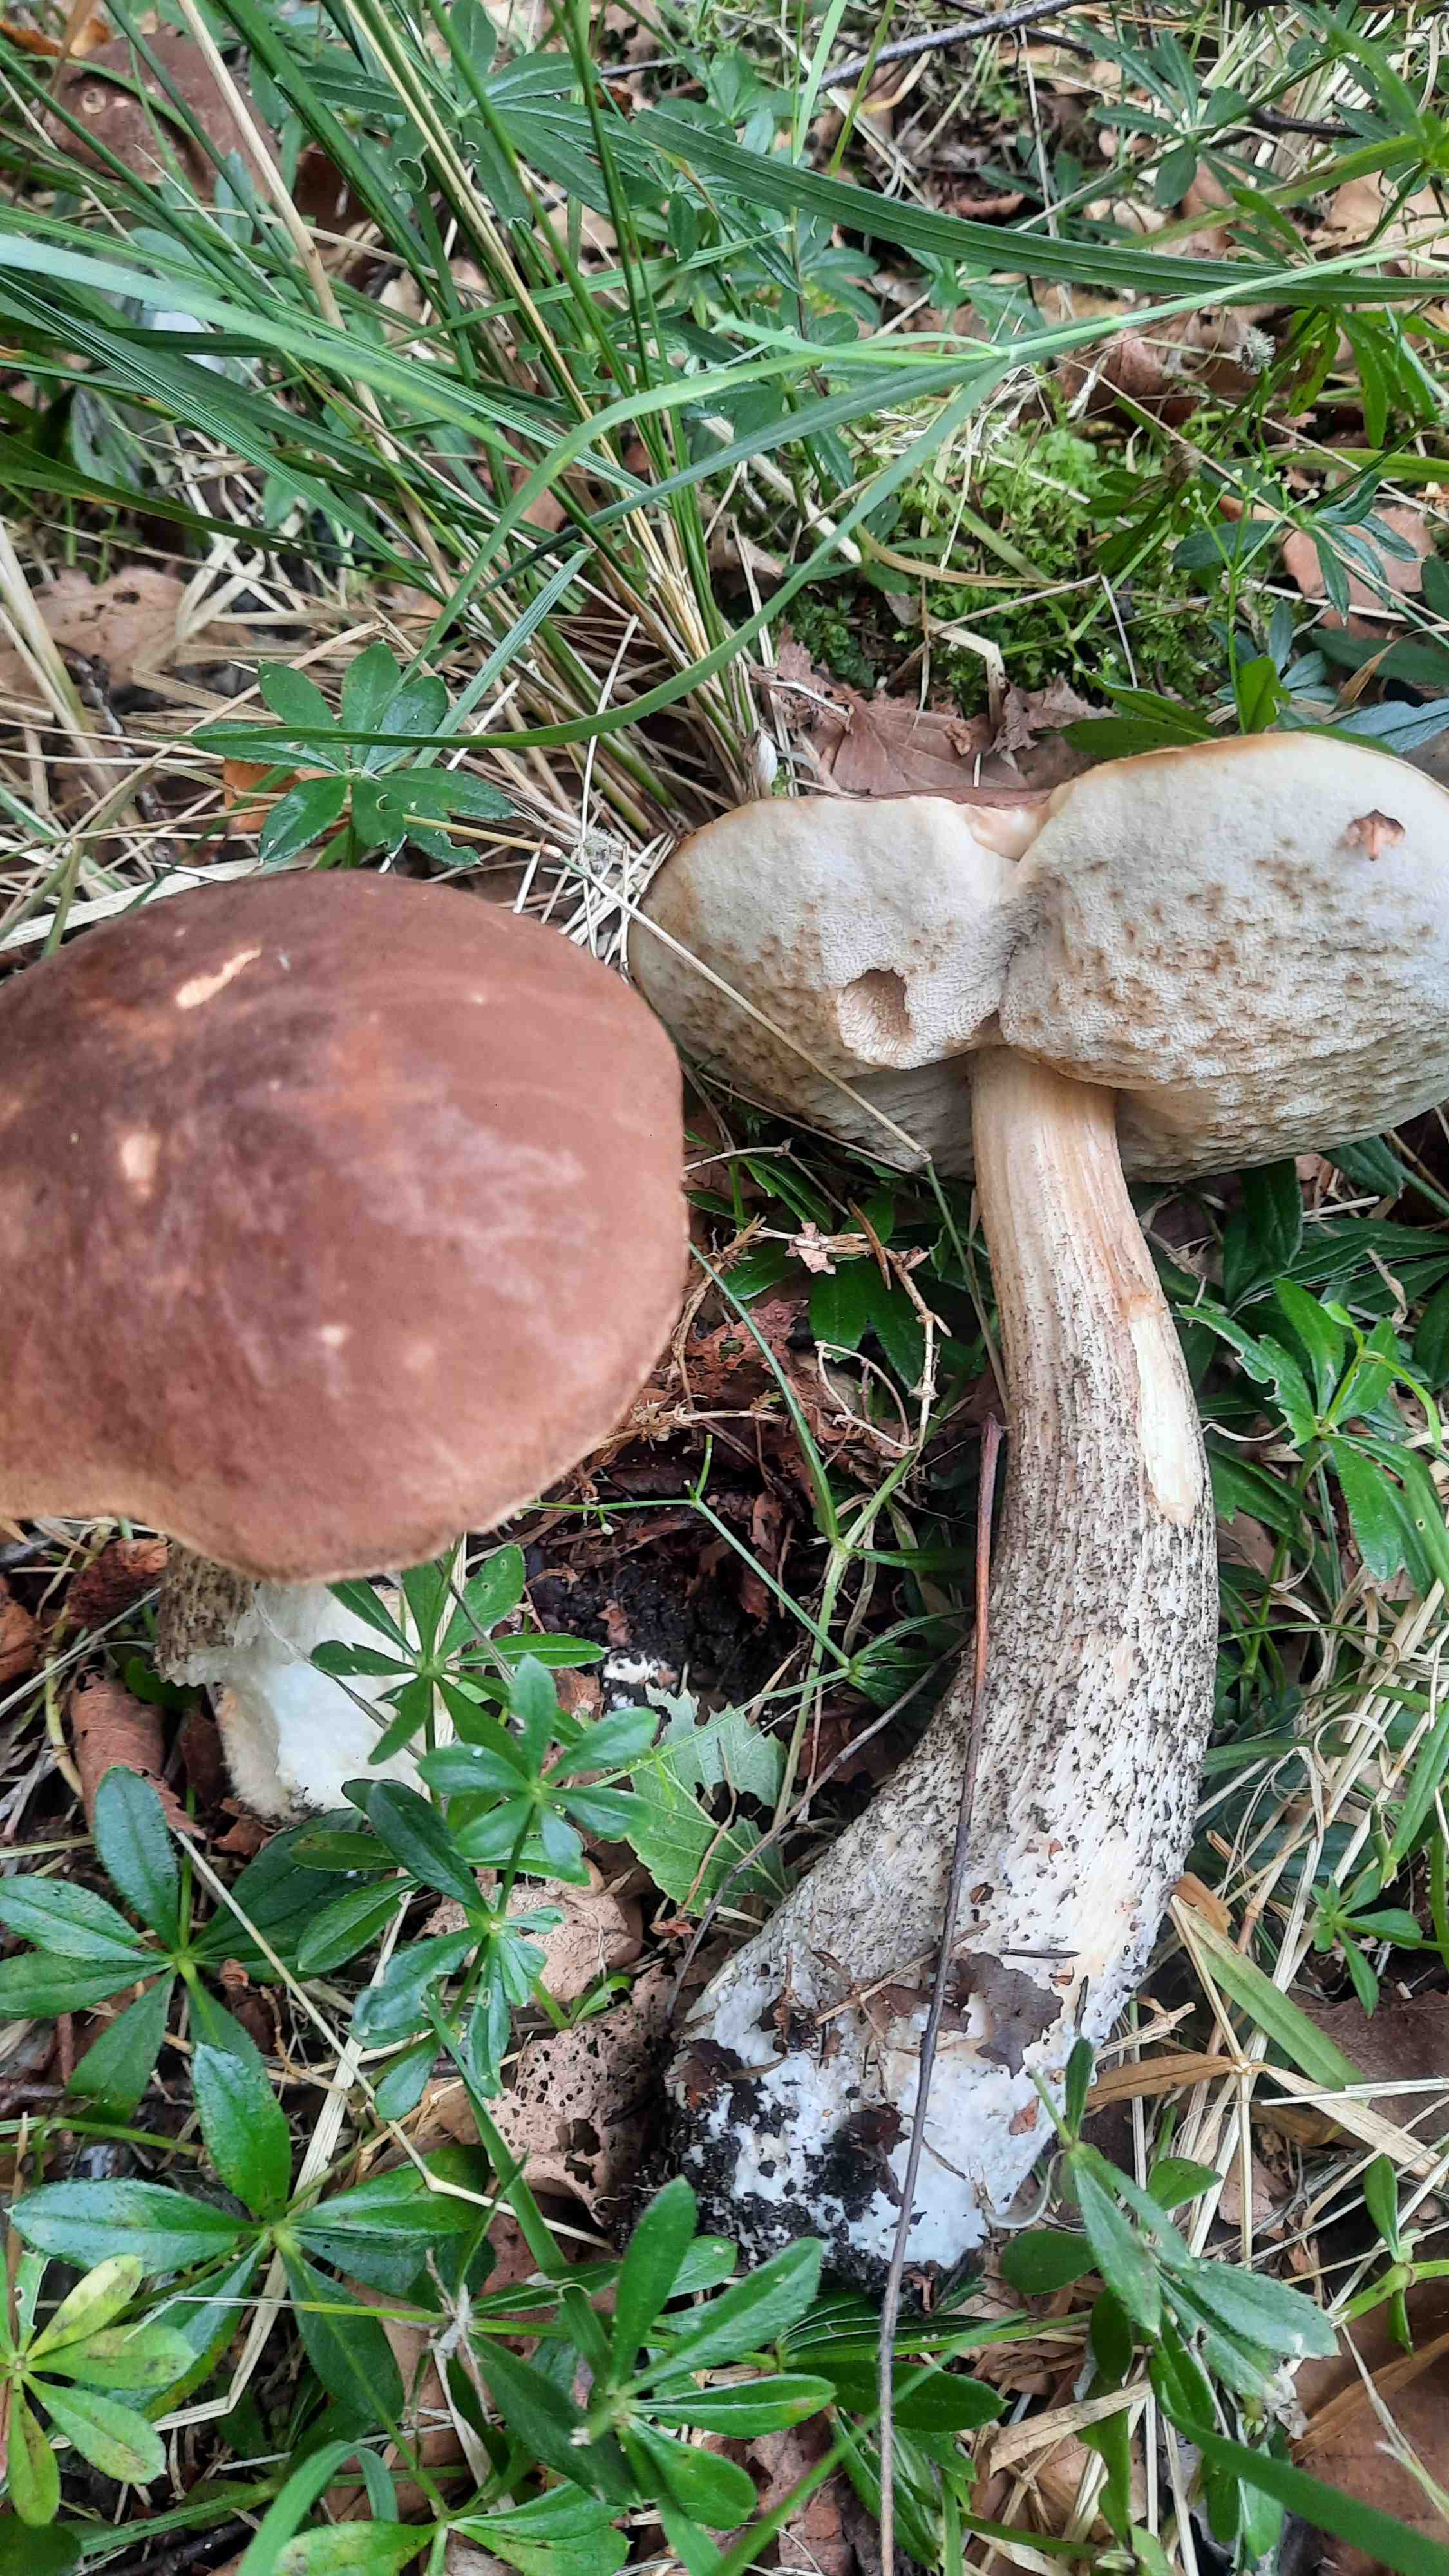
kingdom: Fungi
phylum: Basidiomycota
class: Agaricomycetes
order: Boletales
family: Boletaceae
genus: Leccinum
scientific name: Leccinum scabrum
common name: brun skælrørhat
